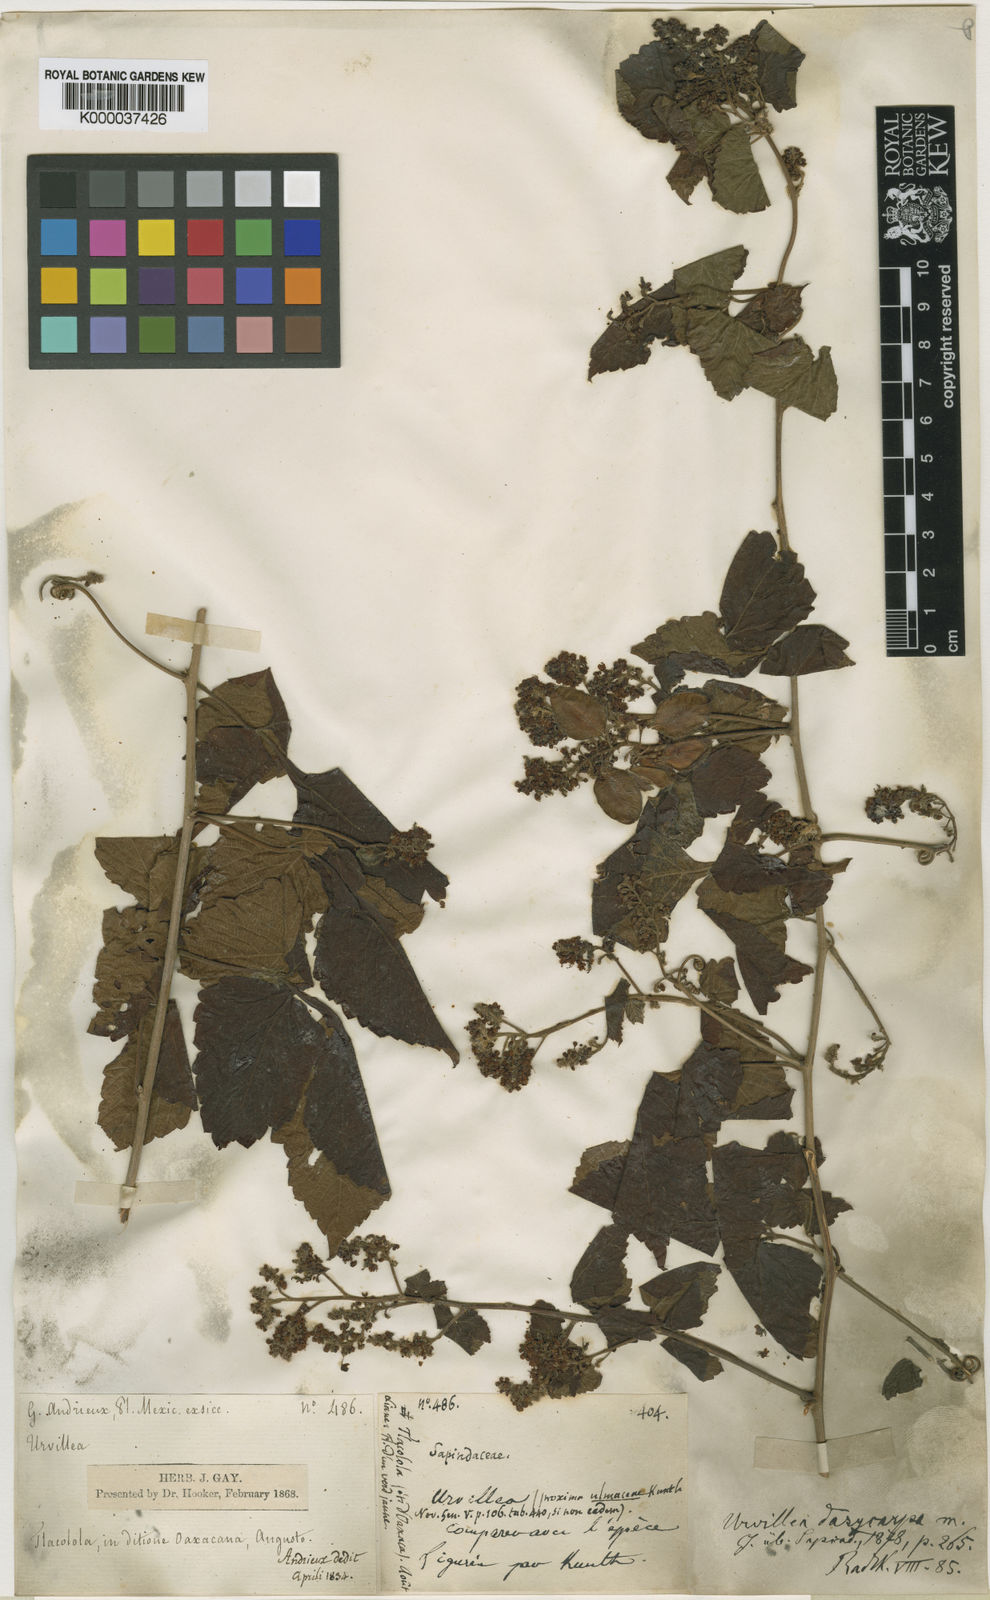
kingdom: Plantae
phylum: Tracheophyta
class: Magnoliopsida
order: Sapindales
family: Sapindaceae
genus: Urvillea
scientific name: Urvillea ulmacea
